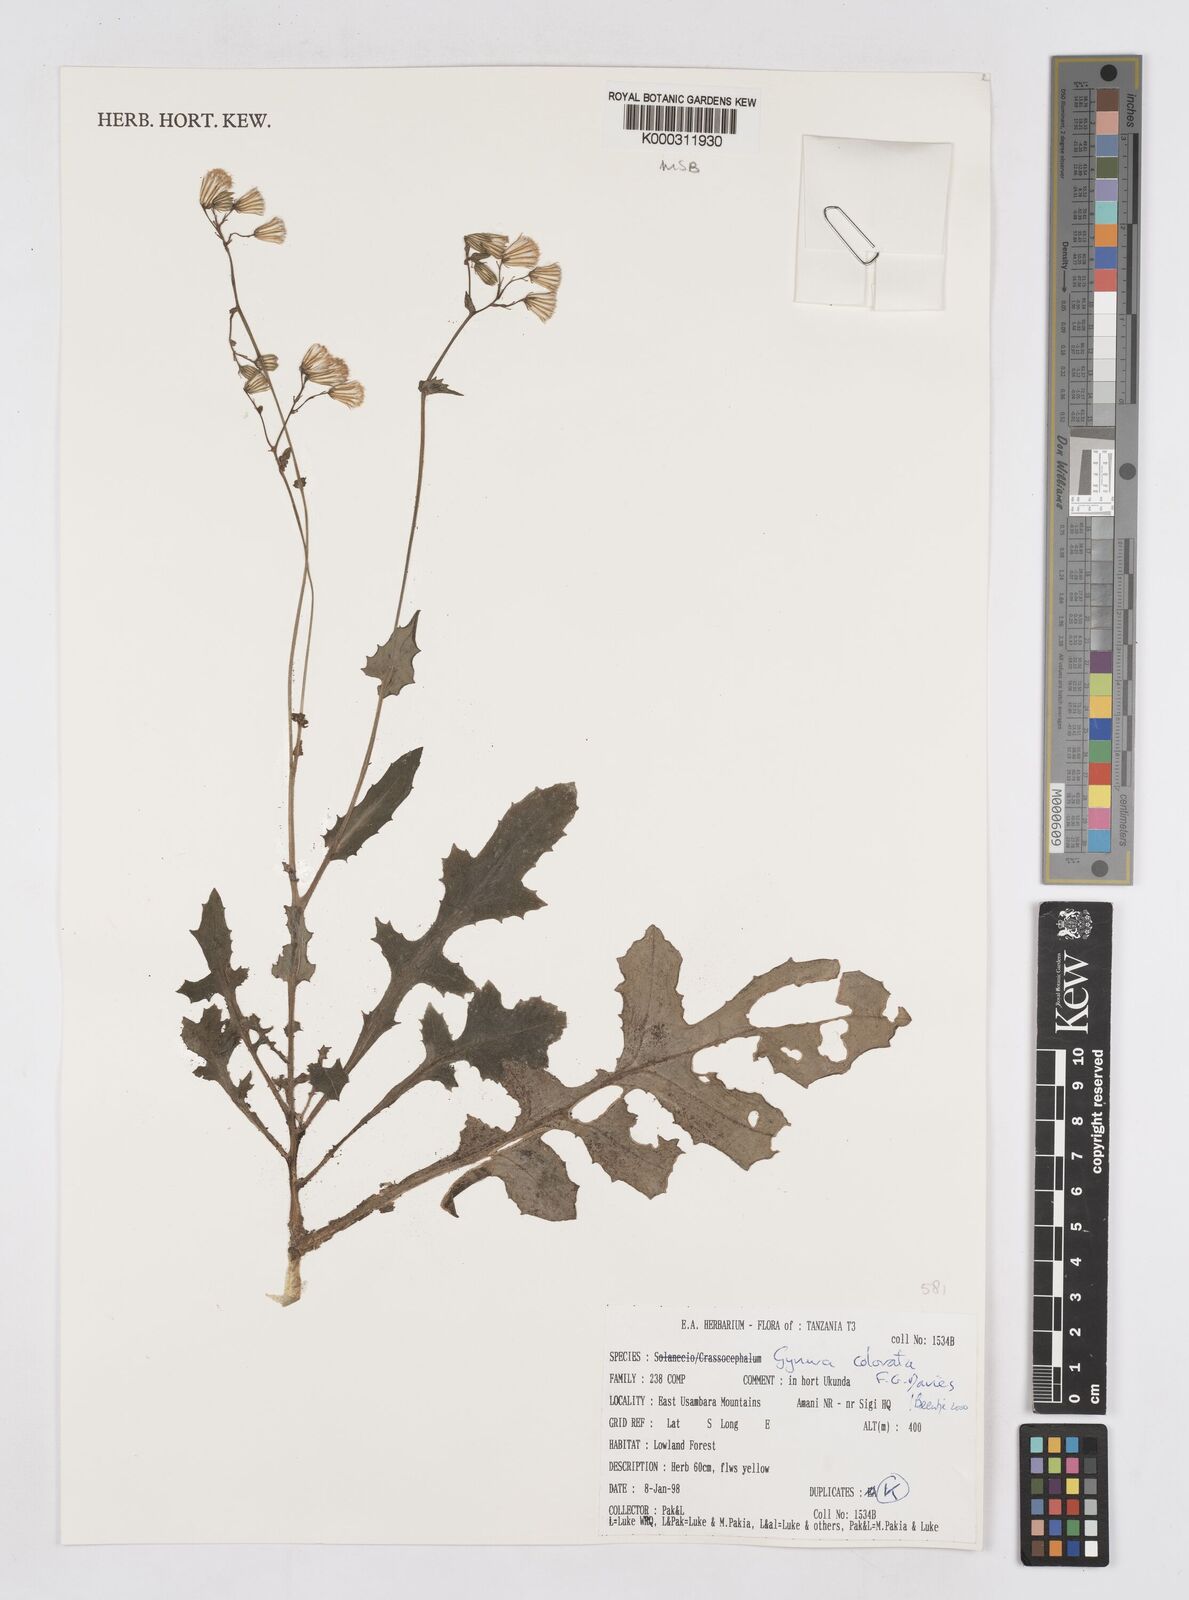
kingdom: Plantae
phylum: Tracheophyta
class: Magnoliopsida
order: Asterales
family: Asteraceae
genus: Gynura
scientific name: Gynura colorata
